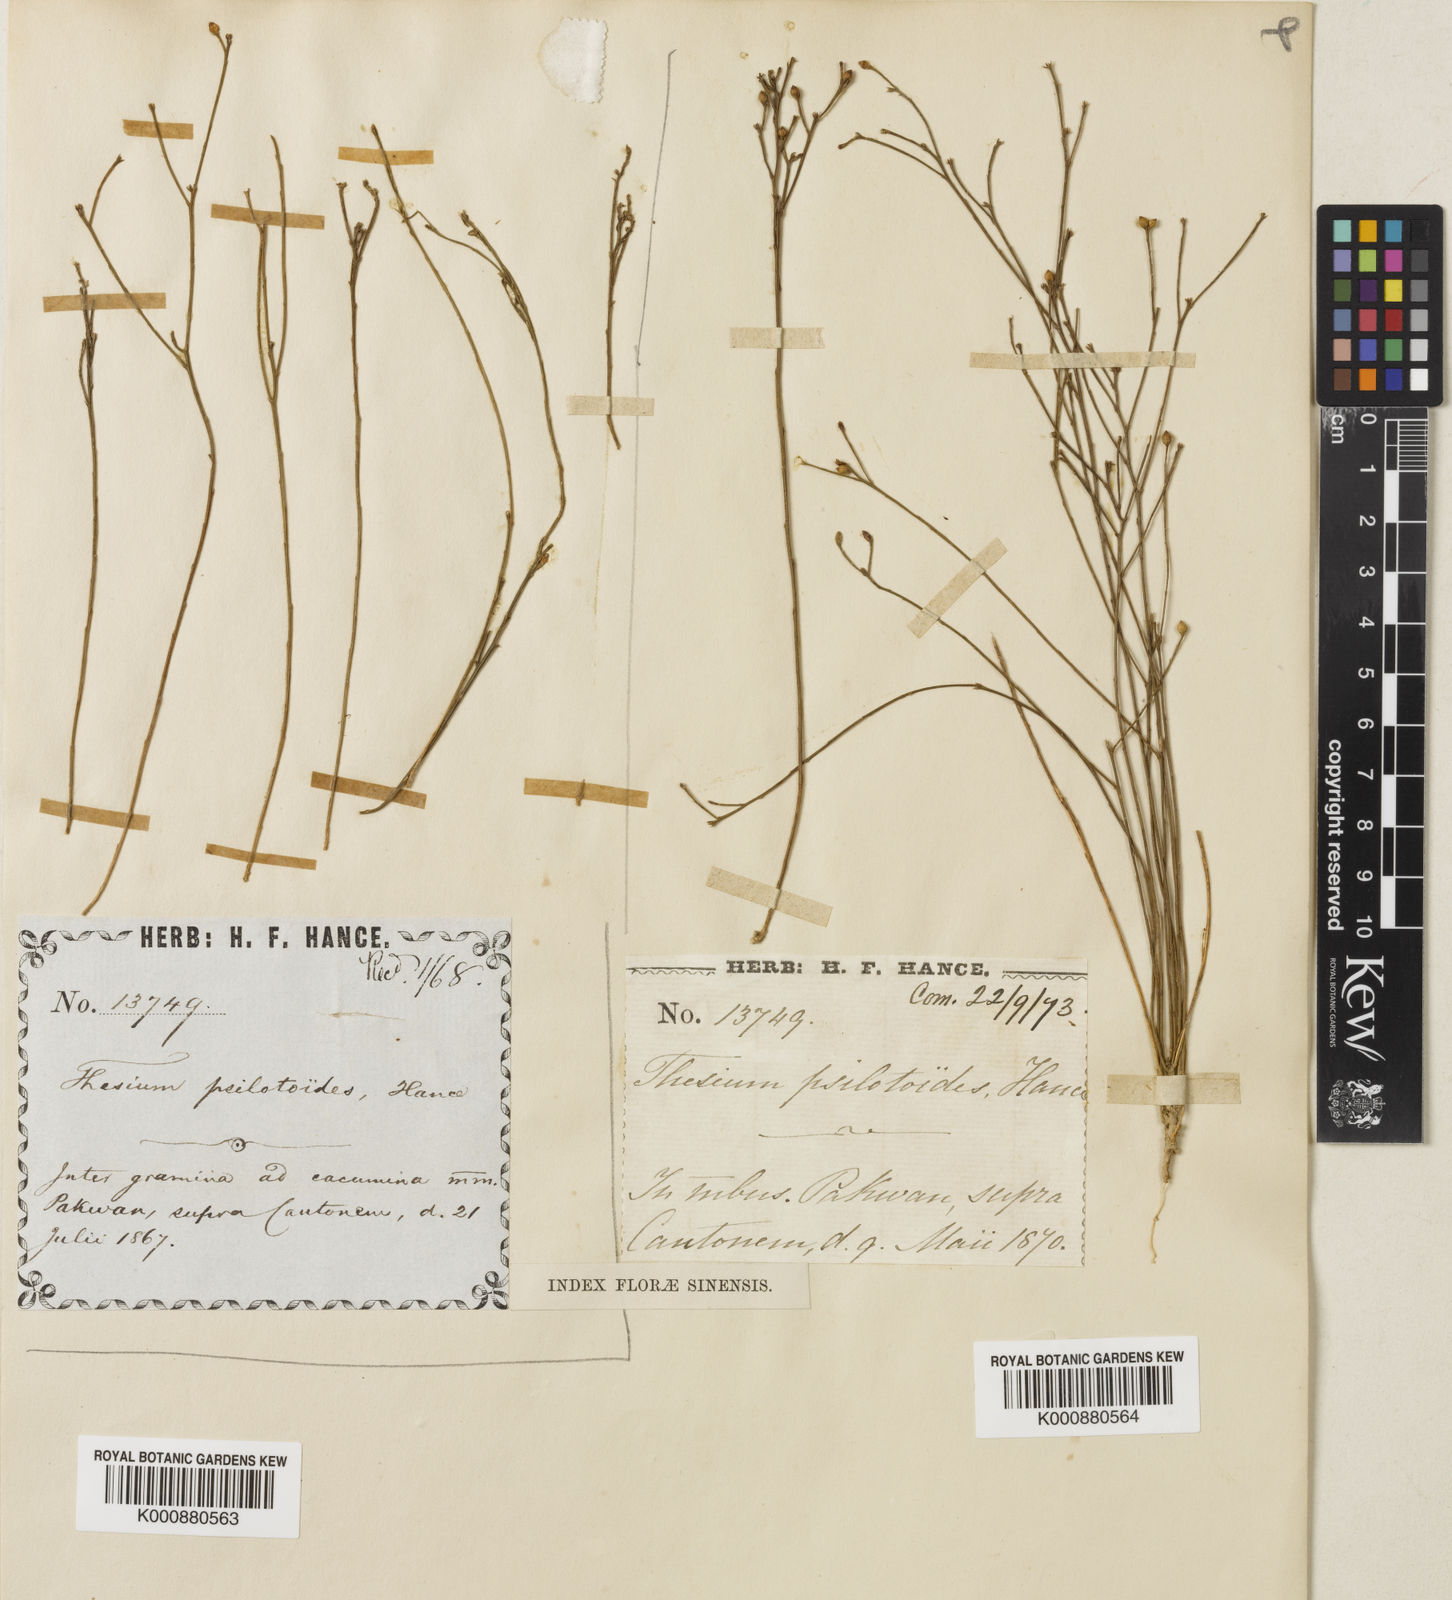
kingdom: Plantae
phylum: Tracheophyta
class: Magnoliopsida
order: Santalales
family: Thesiaceae
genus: Thesium
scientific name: Thesium psilotoides
